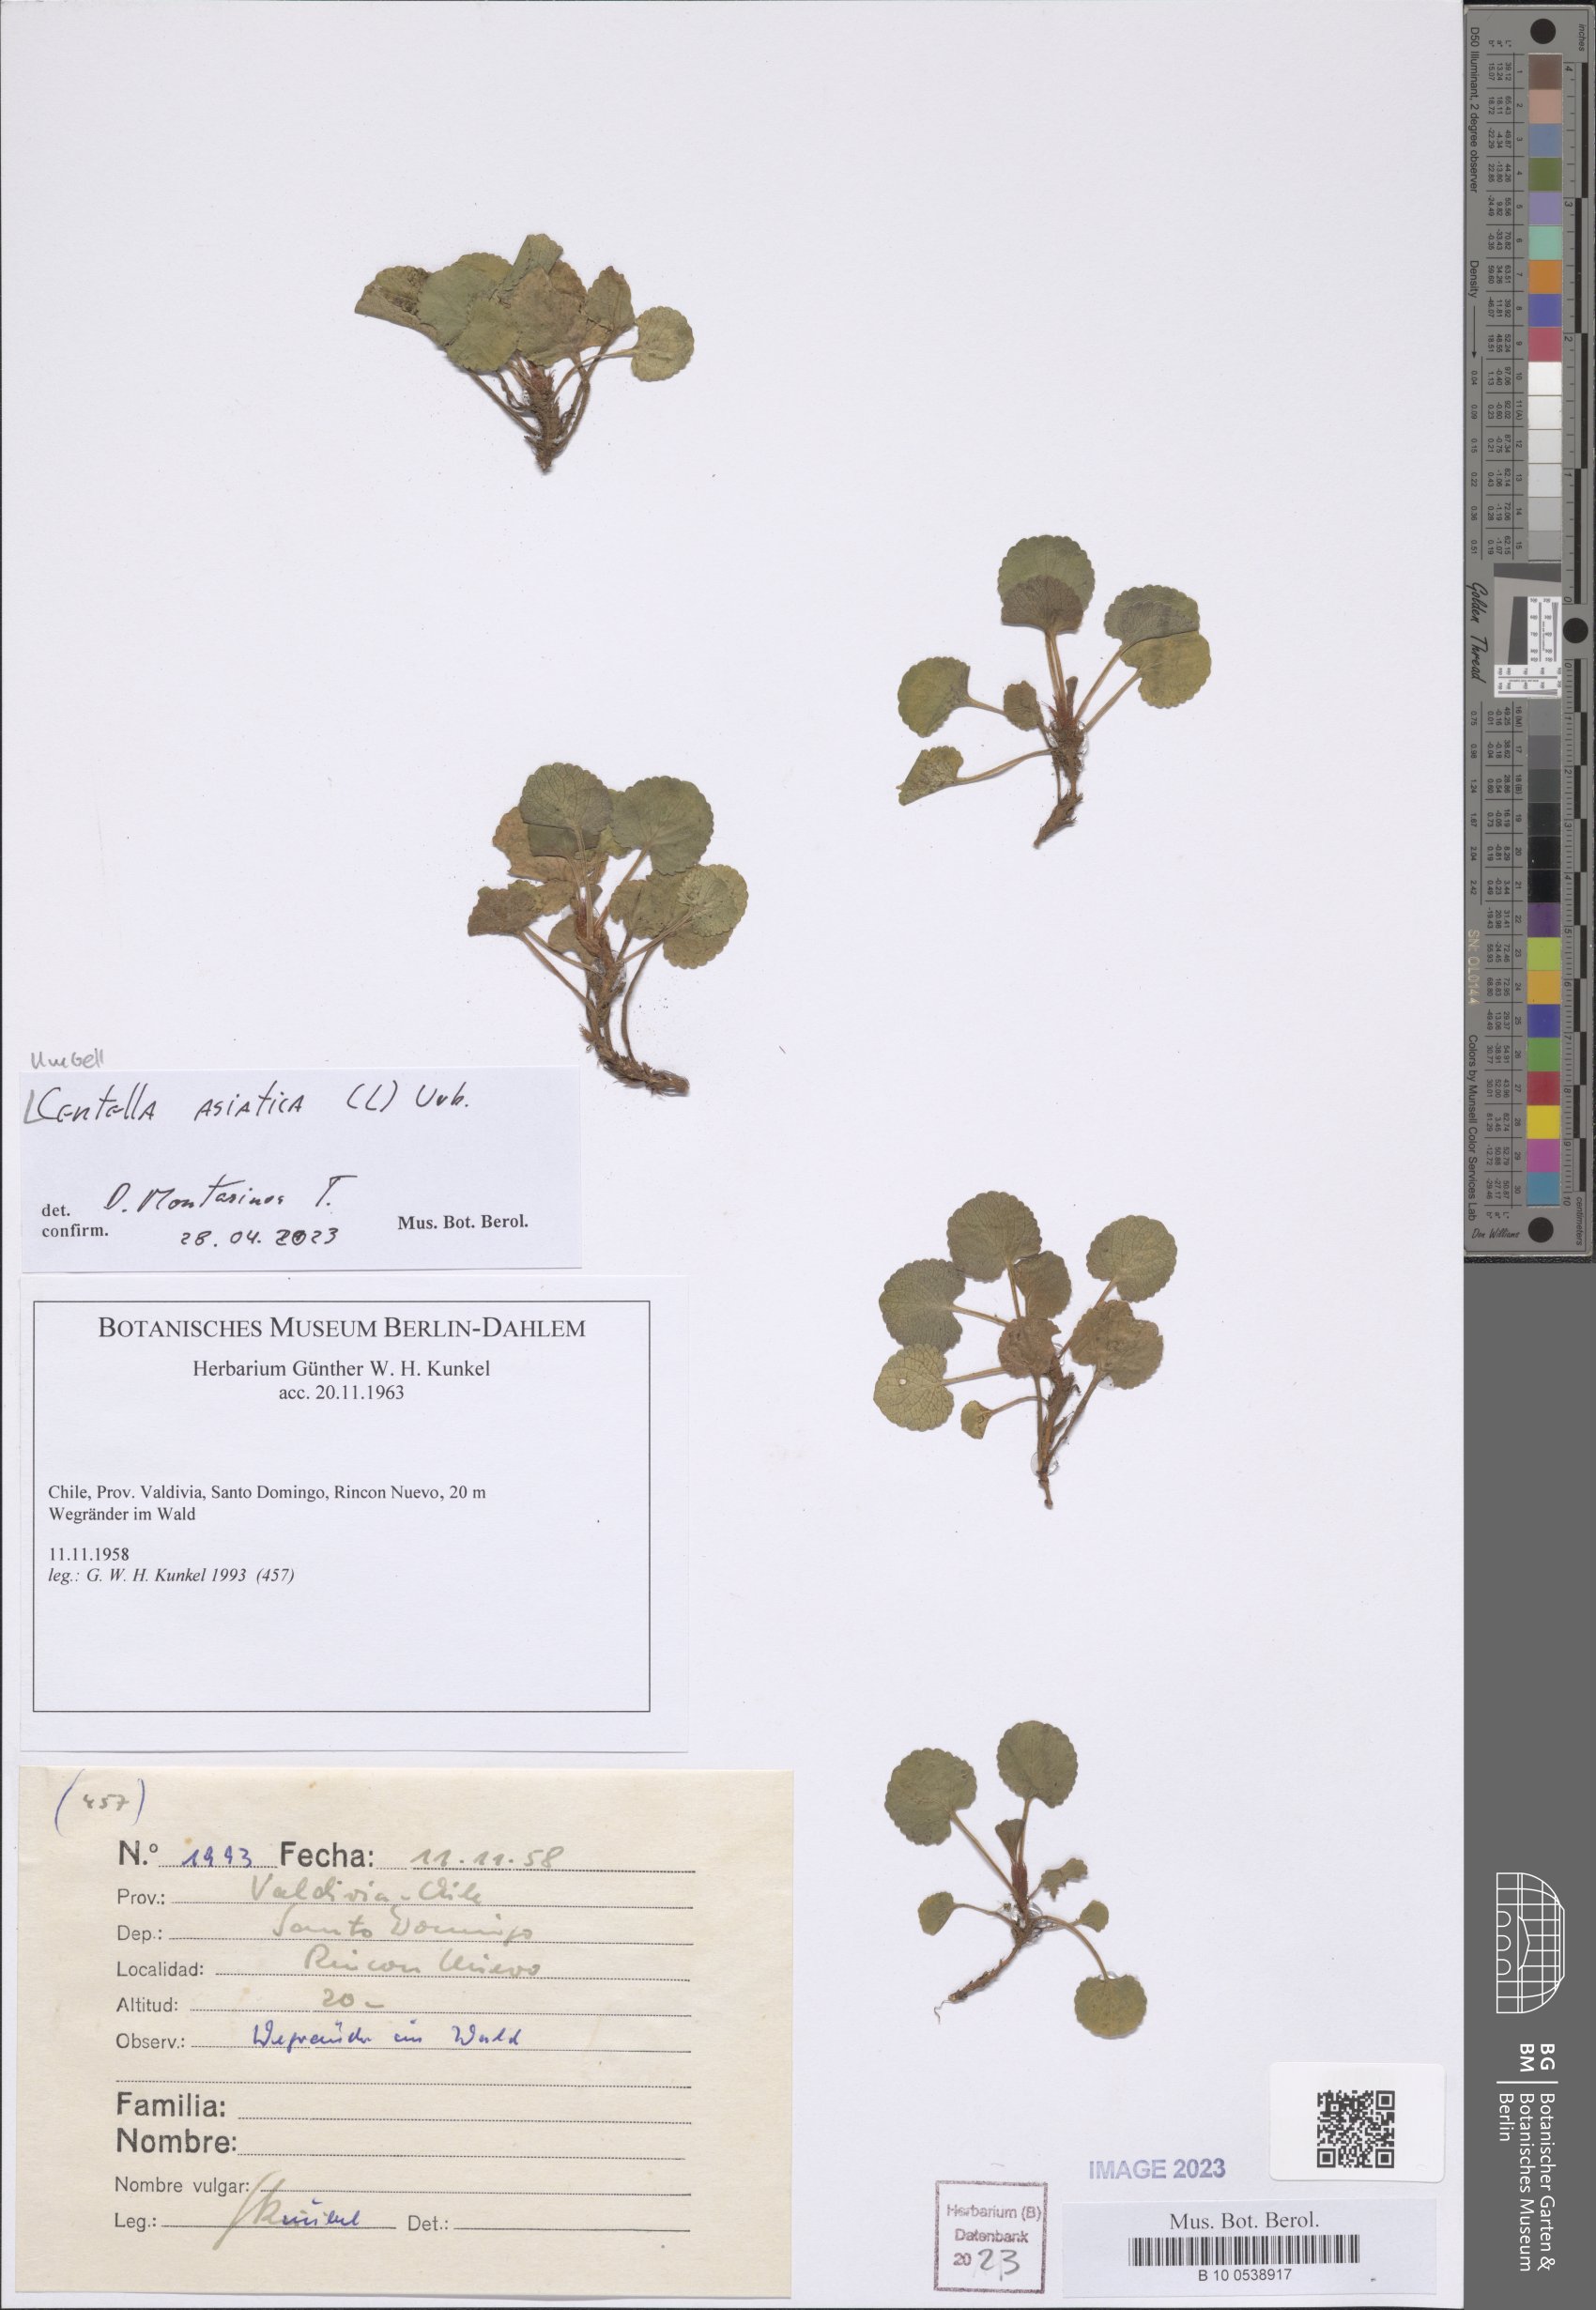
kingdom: Plantae
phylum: Tracheophyta
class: Magnoliopsida
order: Apiales
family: Apiaceae
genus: Centella
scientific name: Centella asiatica
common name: Spadeleaf
